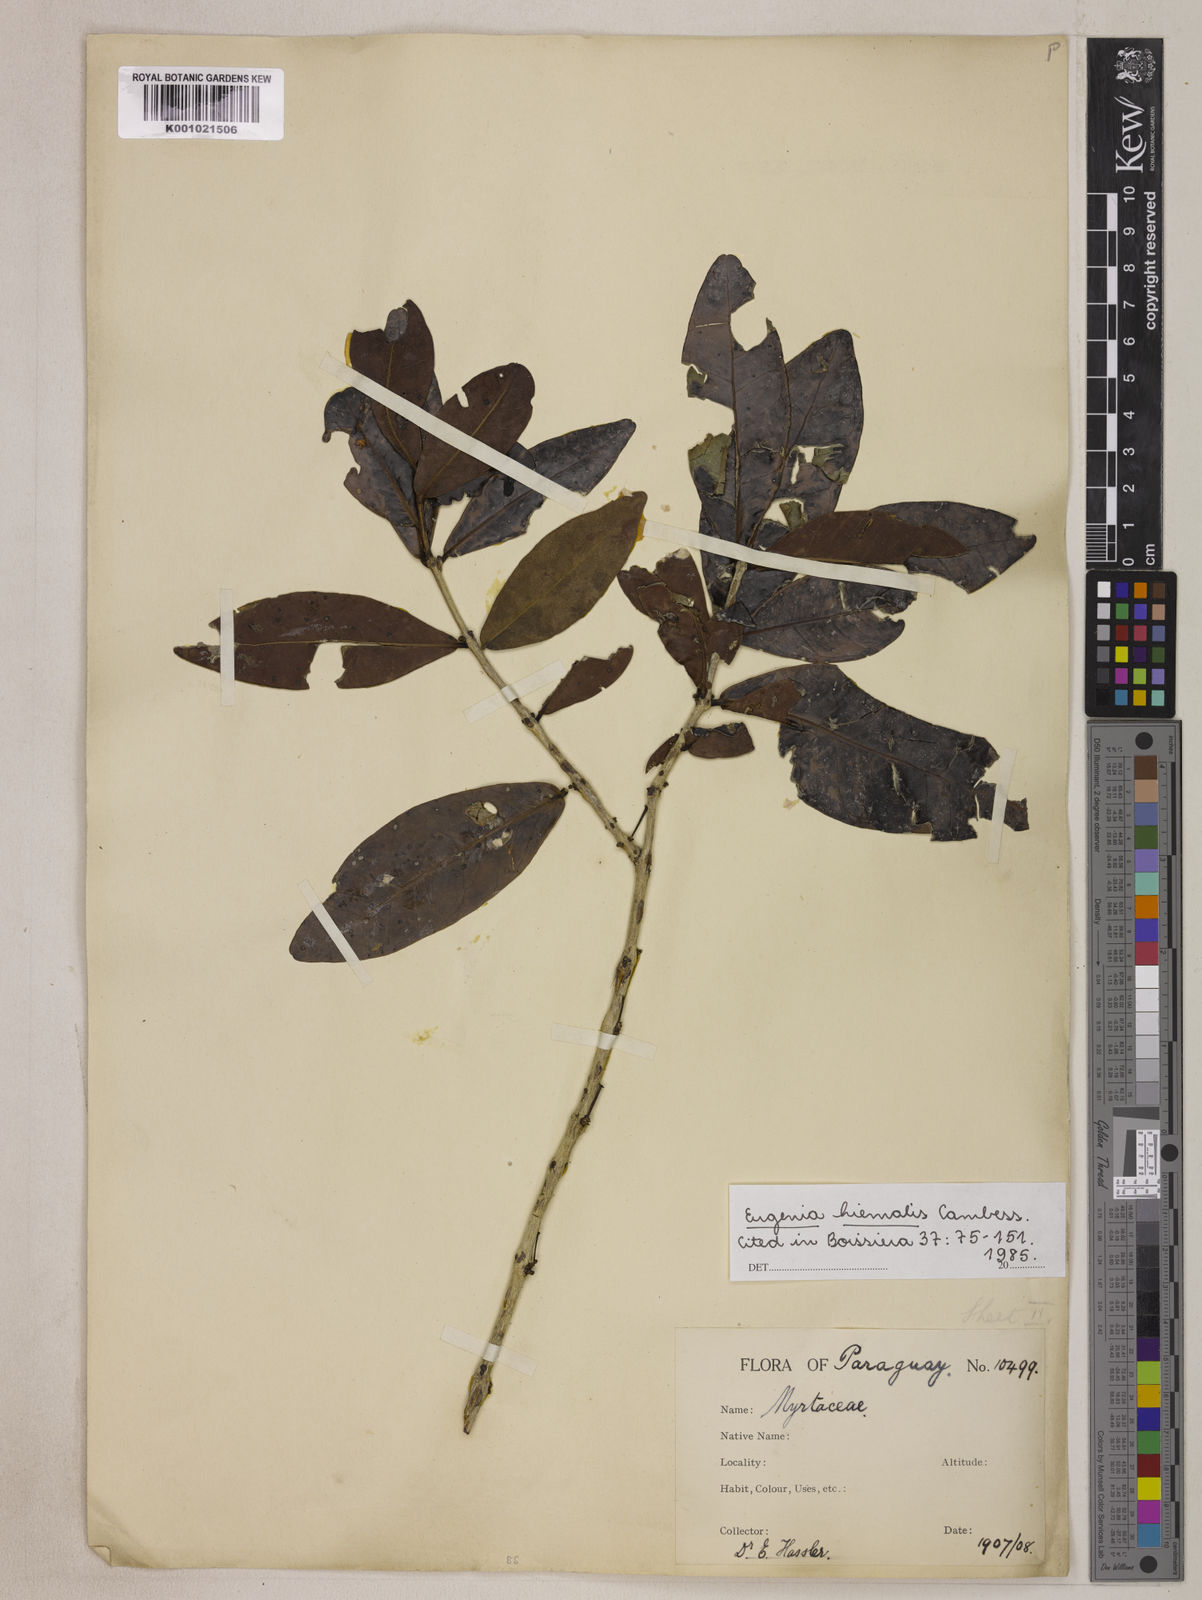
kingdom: Plantae
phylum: Tracheophyta
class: Magnoliopsida
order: Myrtales
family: Myrtaceae
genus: Eugenia
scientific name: Eugenia hiemalis
